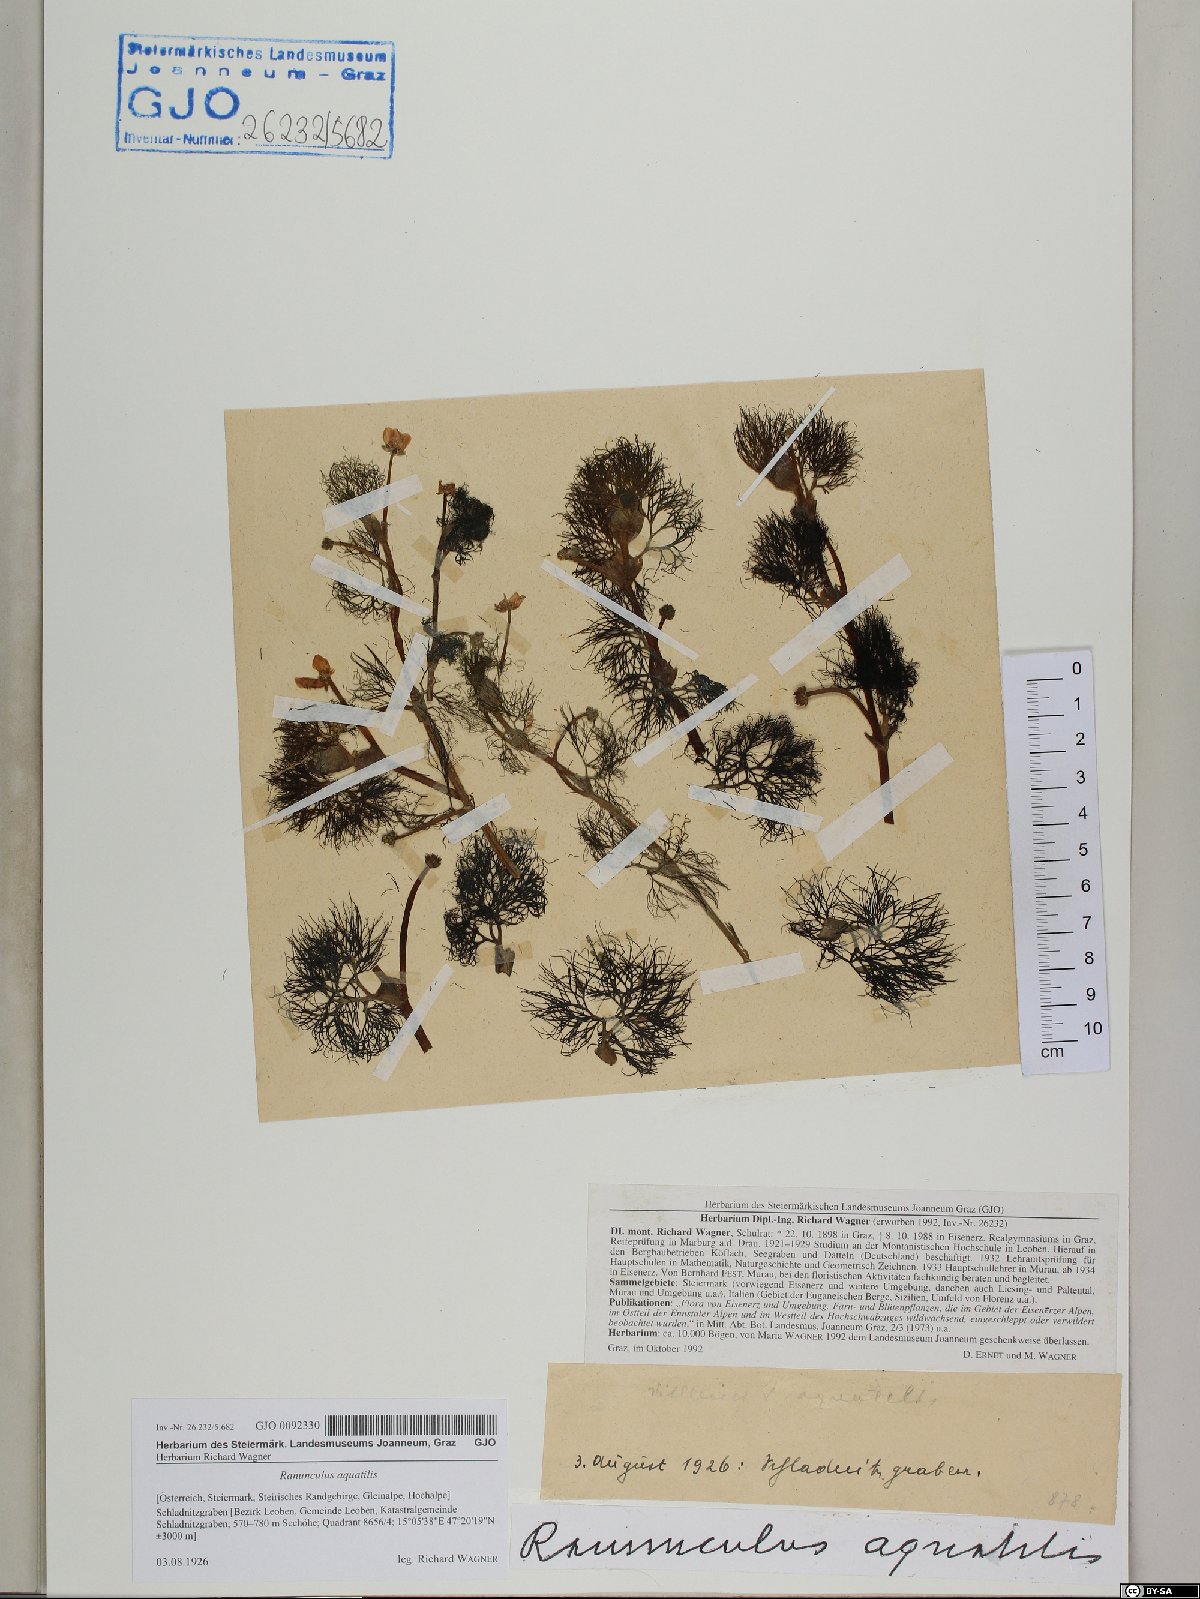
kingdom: Plantae
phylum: Tracheophyta
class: Magnoliopsida
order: Ranunculales
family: Ranunculaceae
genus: Ranunculus
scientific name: Ranunculus aquatilis
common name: Common water-crowfoot
